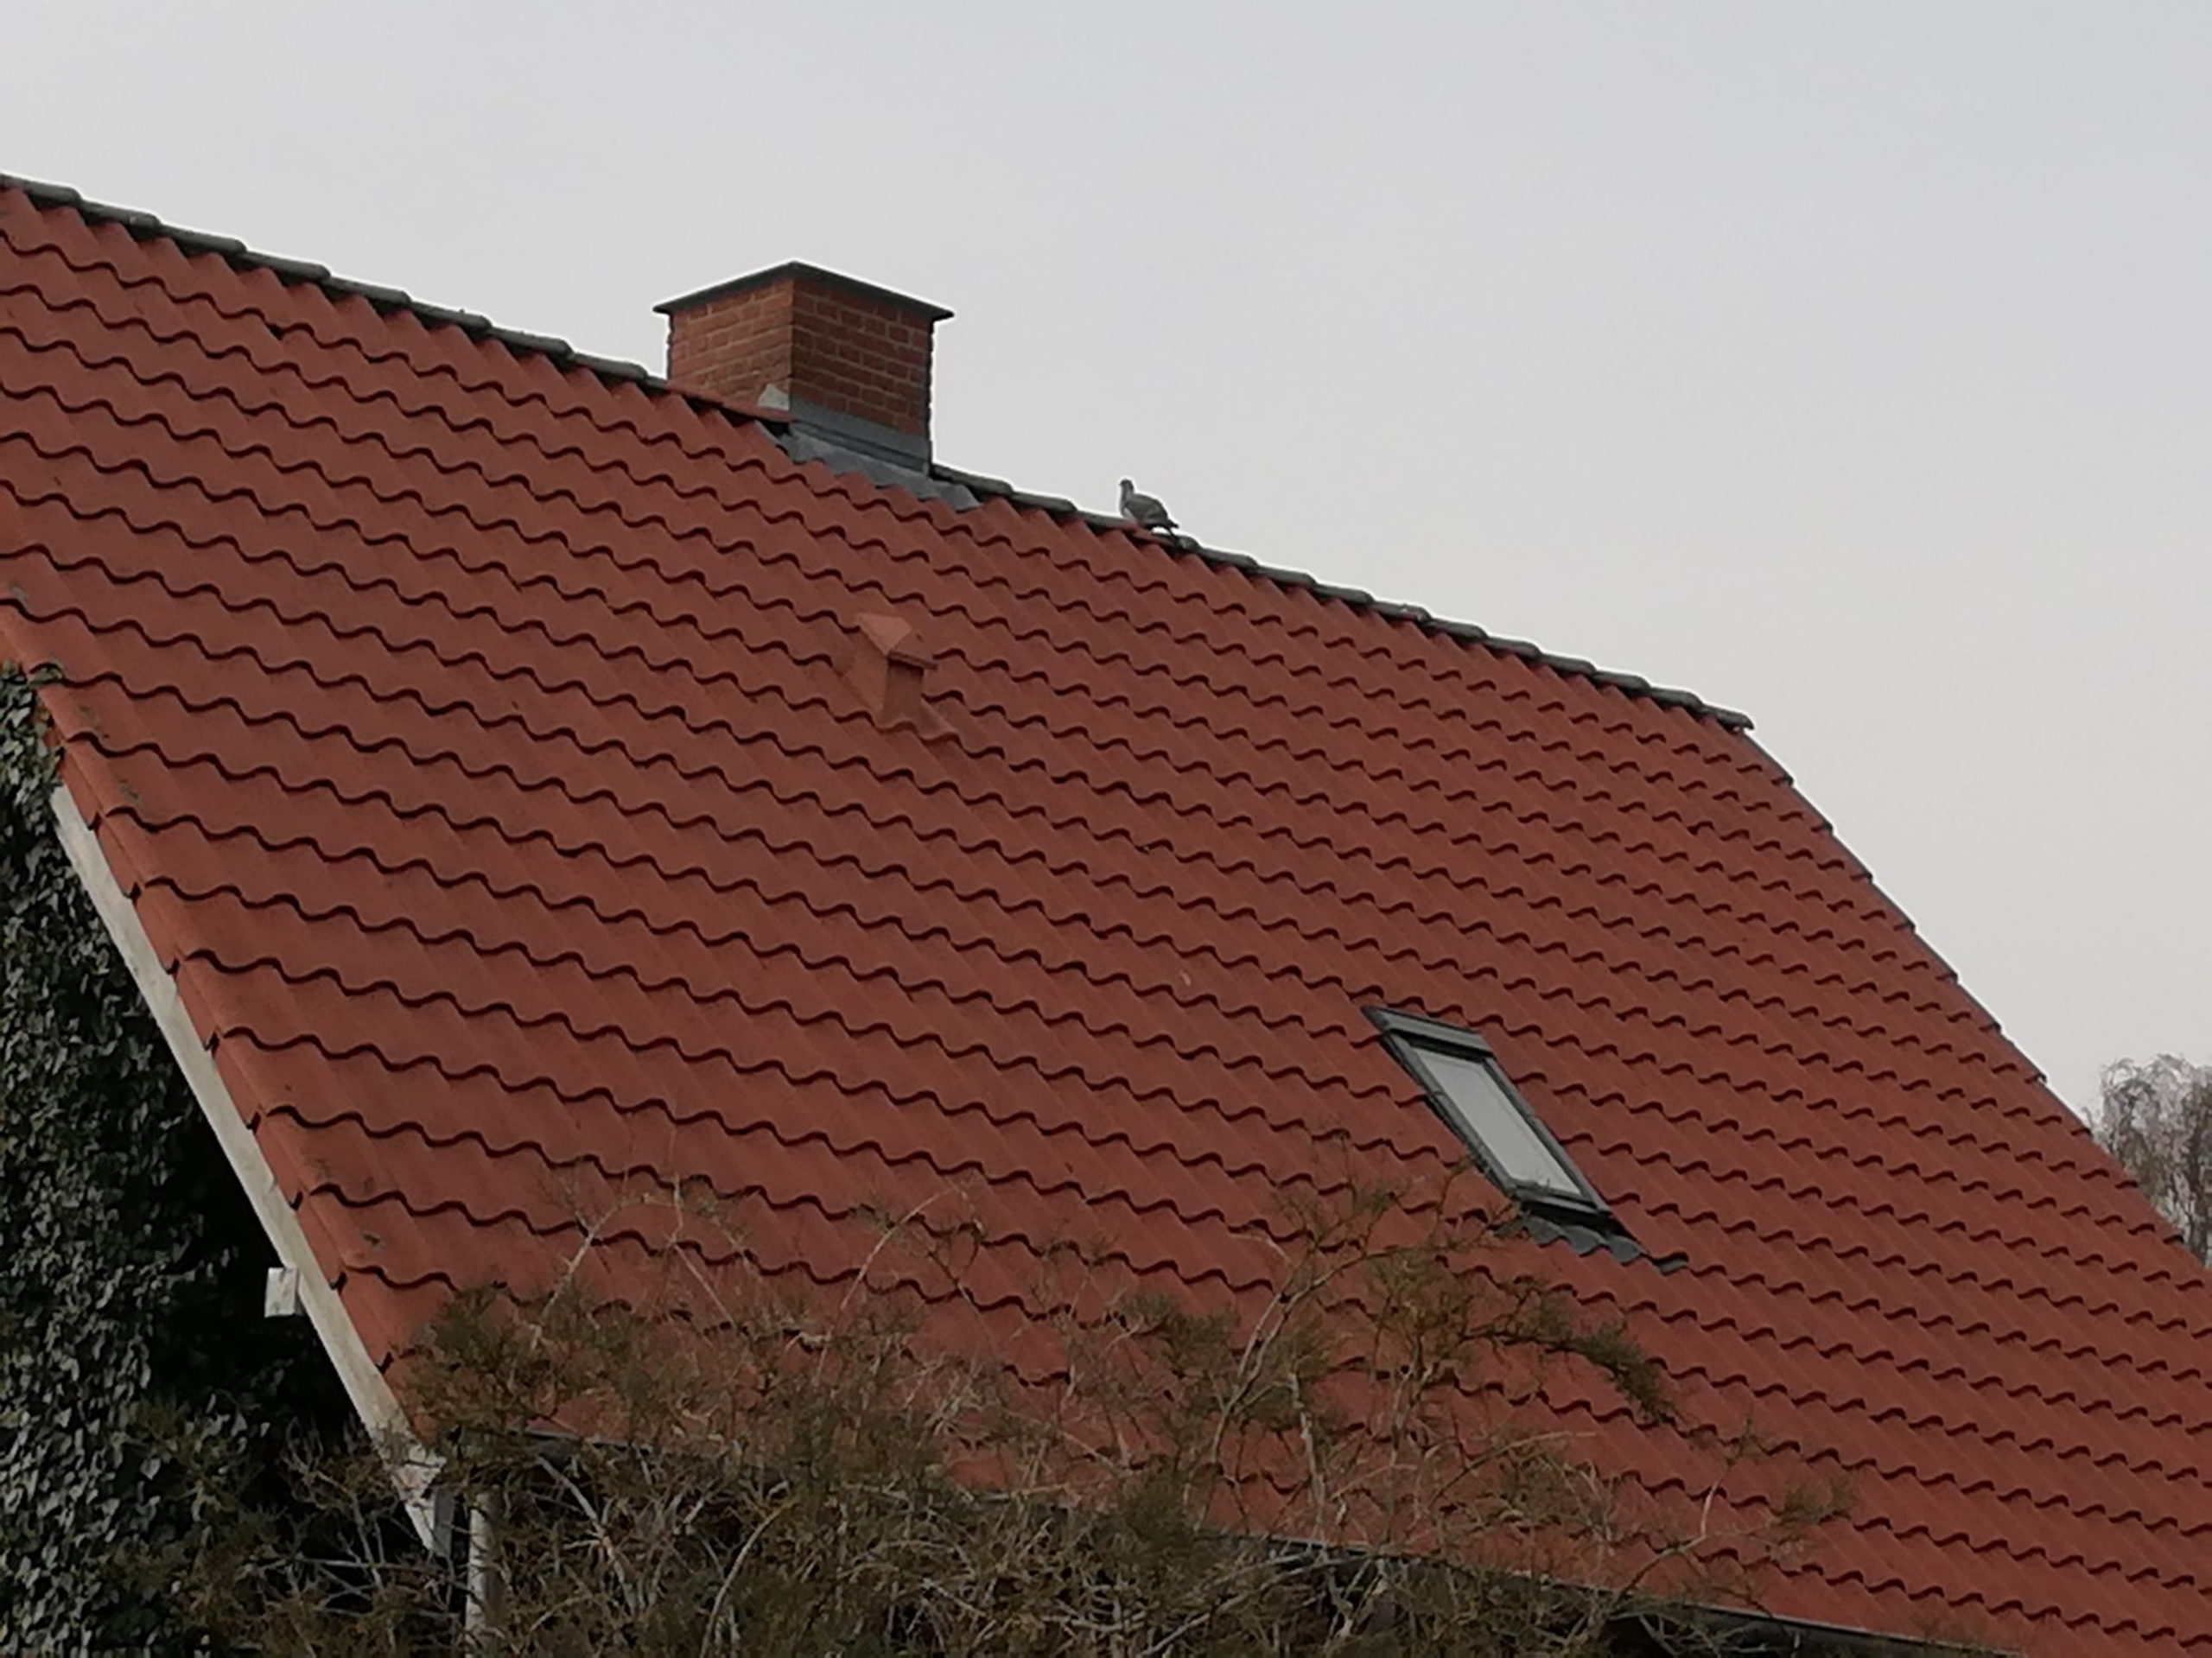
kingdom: Animalia
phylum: Chordata
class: Aves
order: Columbiformes
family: Columbidae
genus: Columba
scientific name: Columba palumbus
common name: Ringdue
